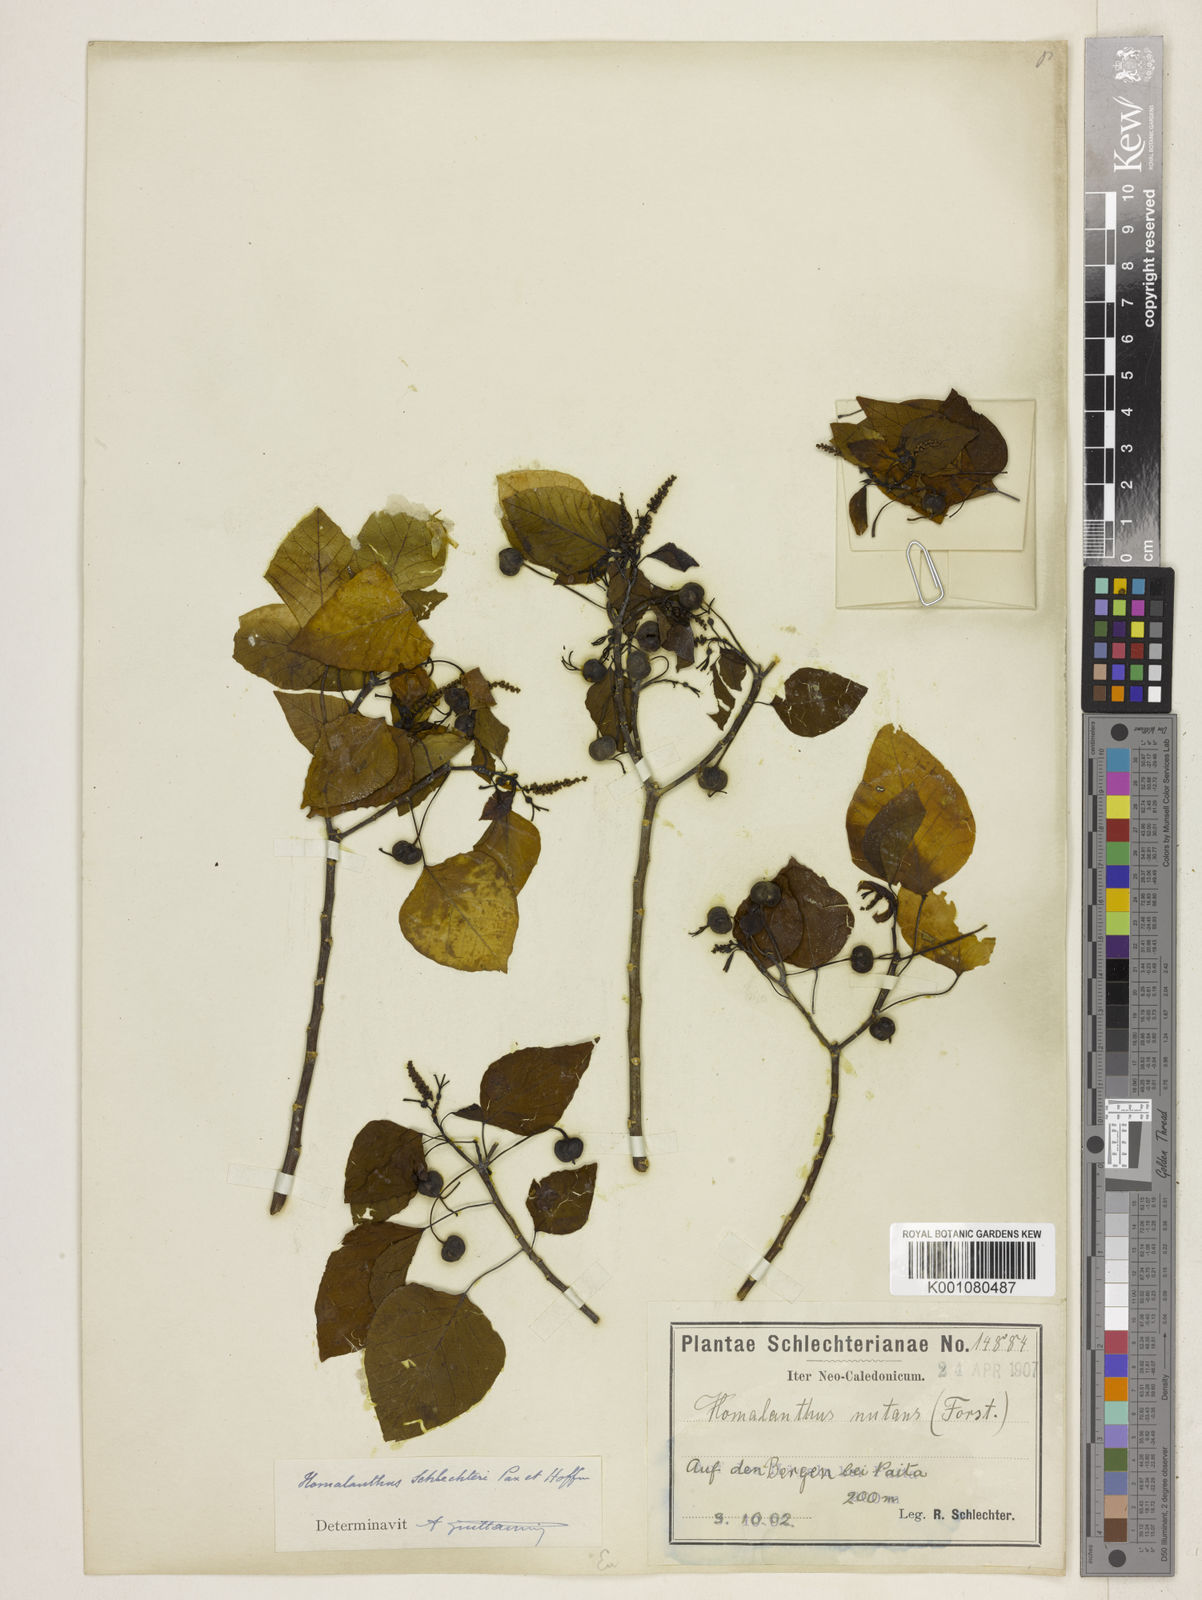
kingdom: Plantae
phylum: Tracheophyta
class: Magnoliopsida
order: Malpighiales
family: Euphorbiaceae
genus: Homalanthus
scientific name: Homalanthus schlechteri
